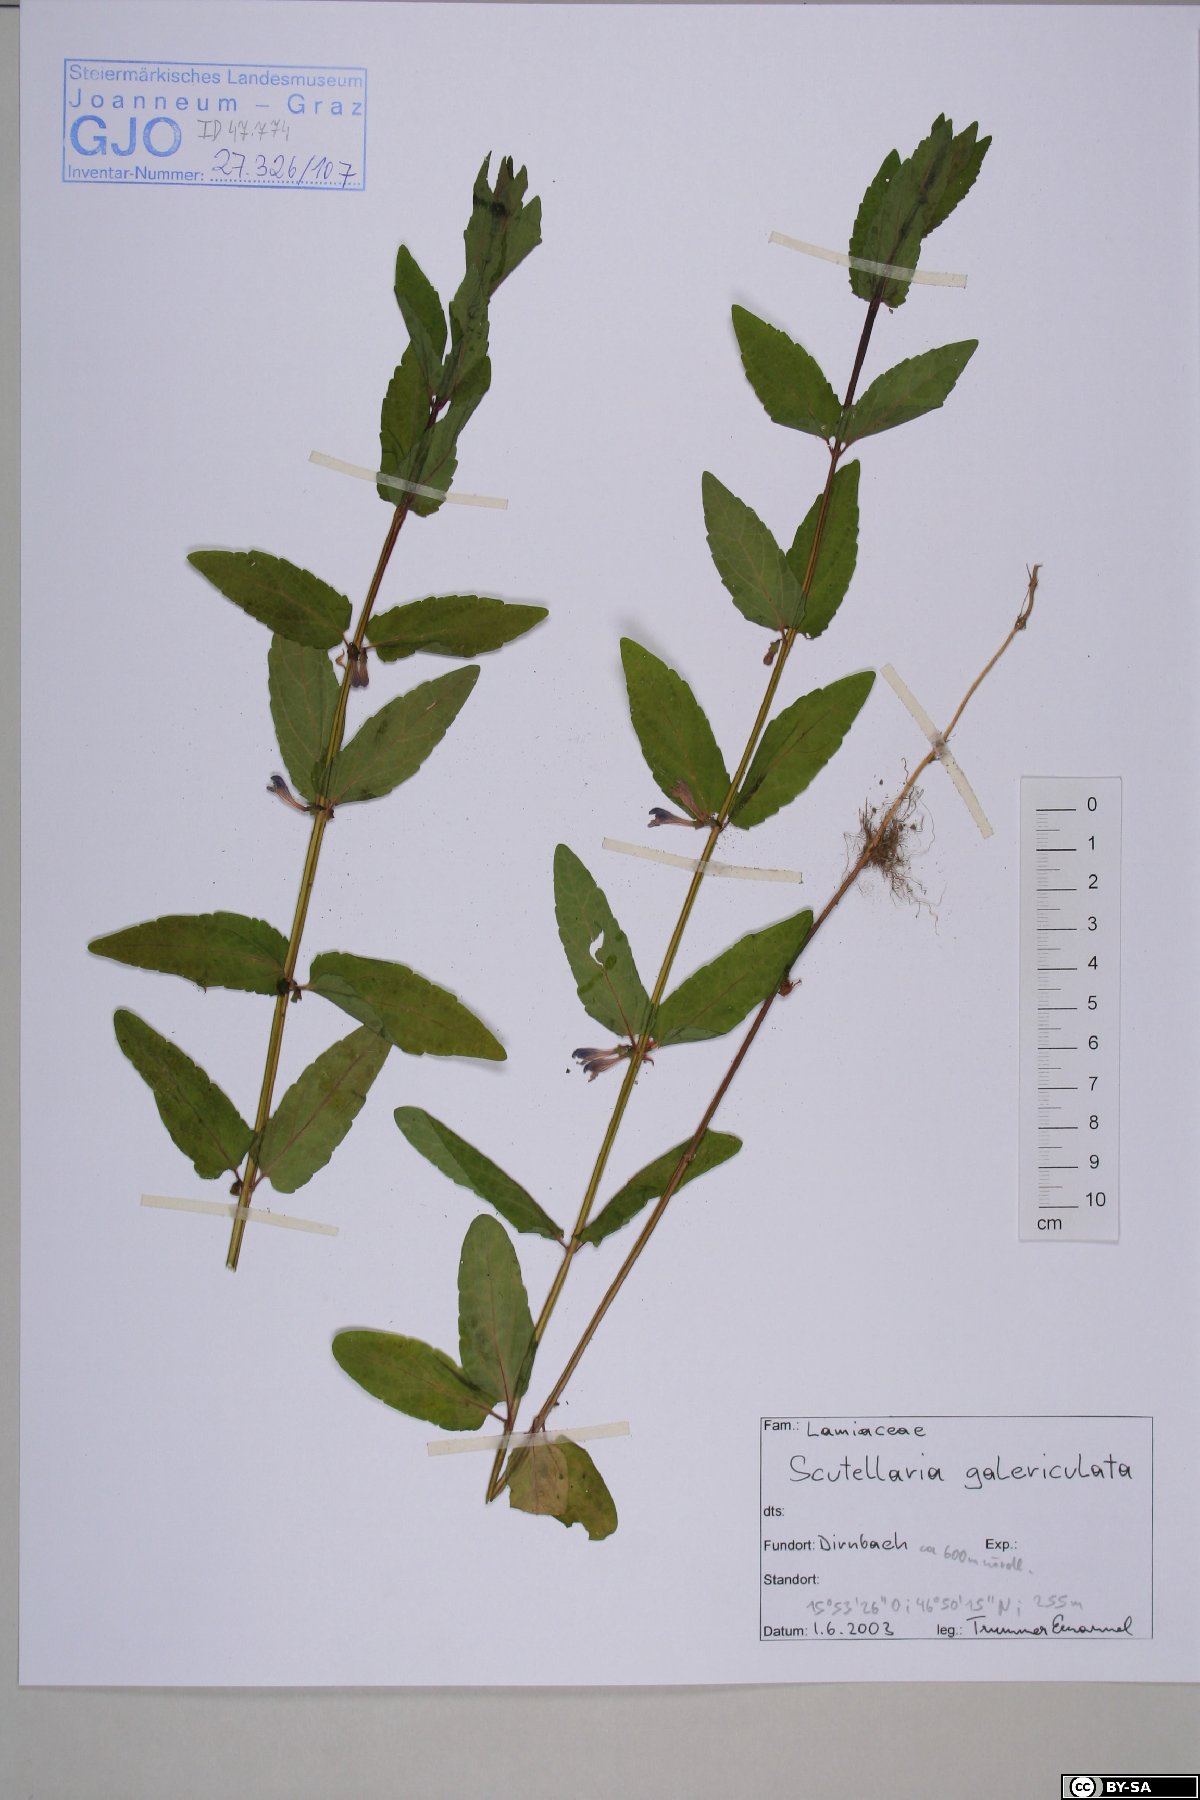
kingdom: Plantae
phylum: Tracheophyta
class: Magnoliopsida
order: Lamiales
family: Lamiaceae
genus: Scutellaria
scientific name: Scutellaria galericulata
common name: Skullcap
